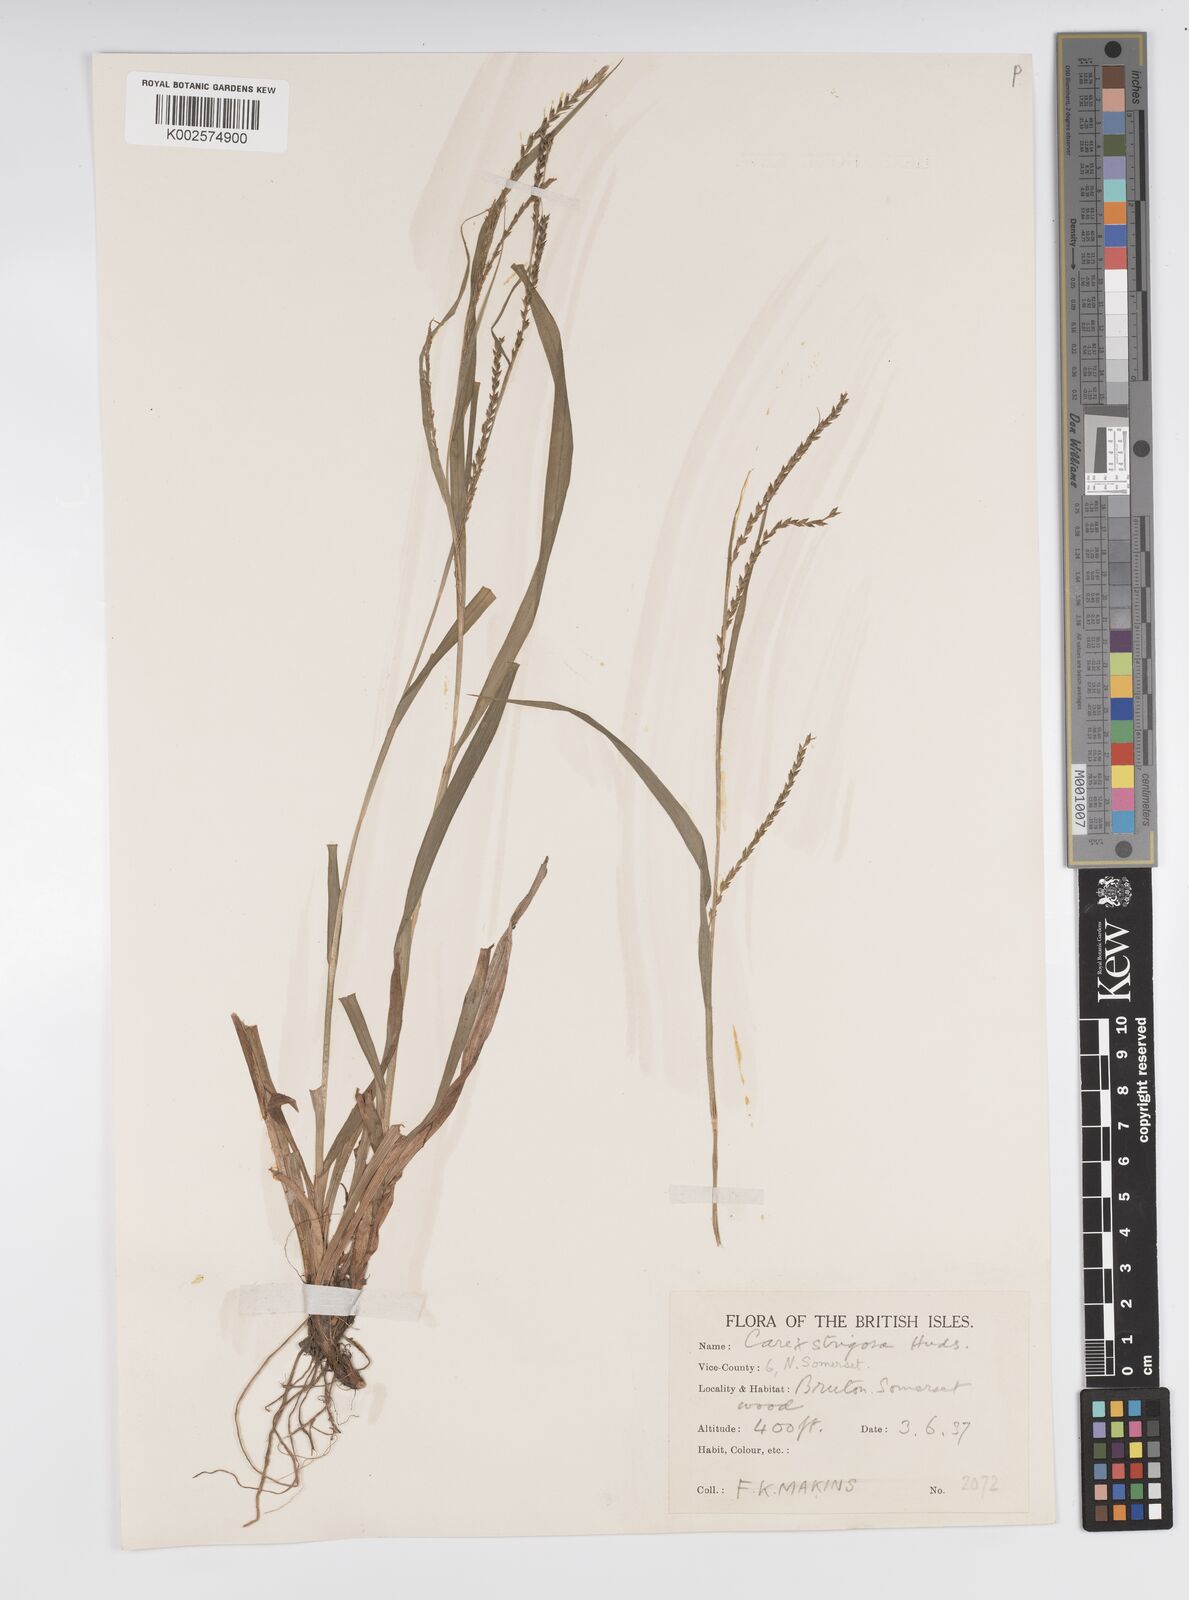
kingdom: Plantae
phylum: Tracheophyta
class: Liliopsida
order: Poales
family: Cyperaceae
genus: Carex
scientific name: Carex strigosa
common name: Thin-spiked wood-sedge
